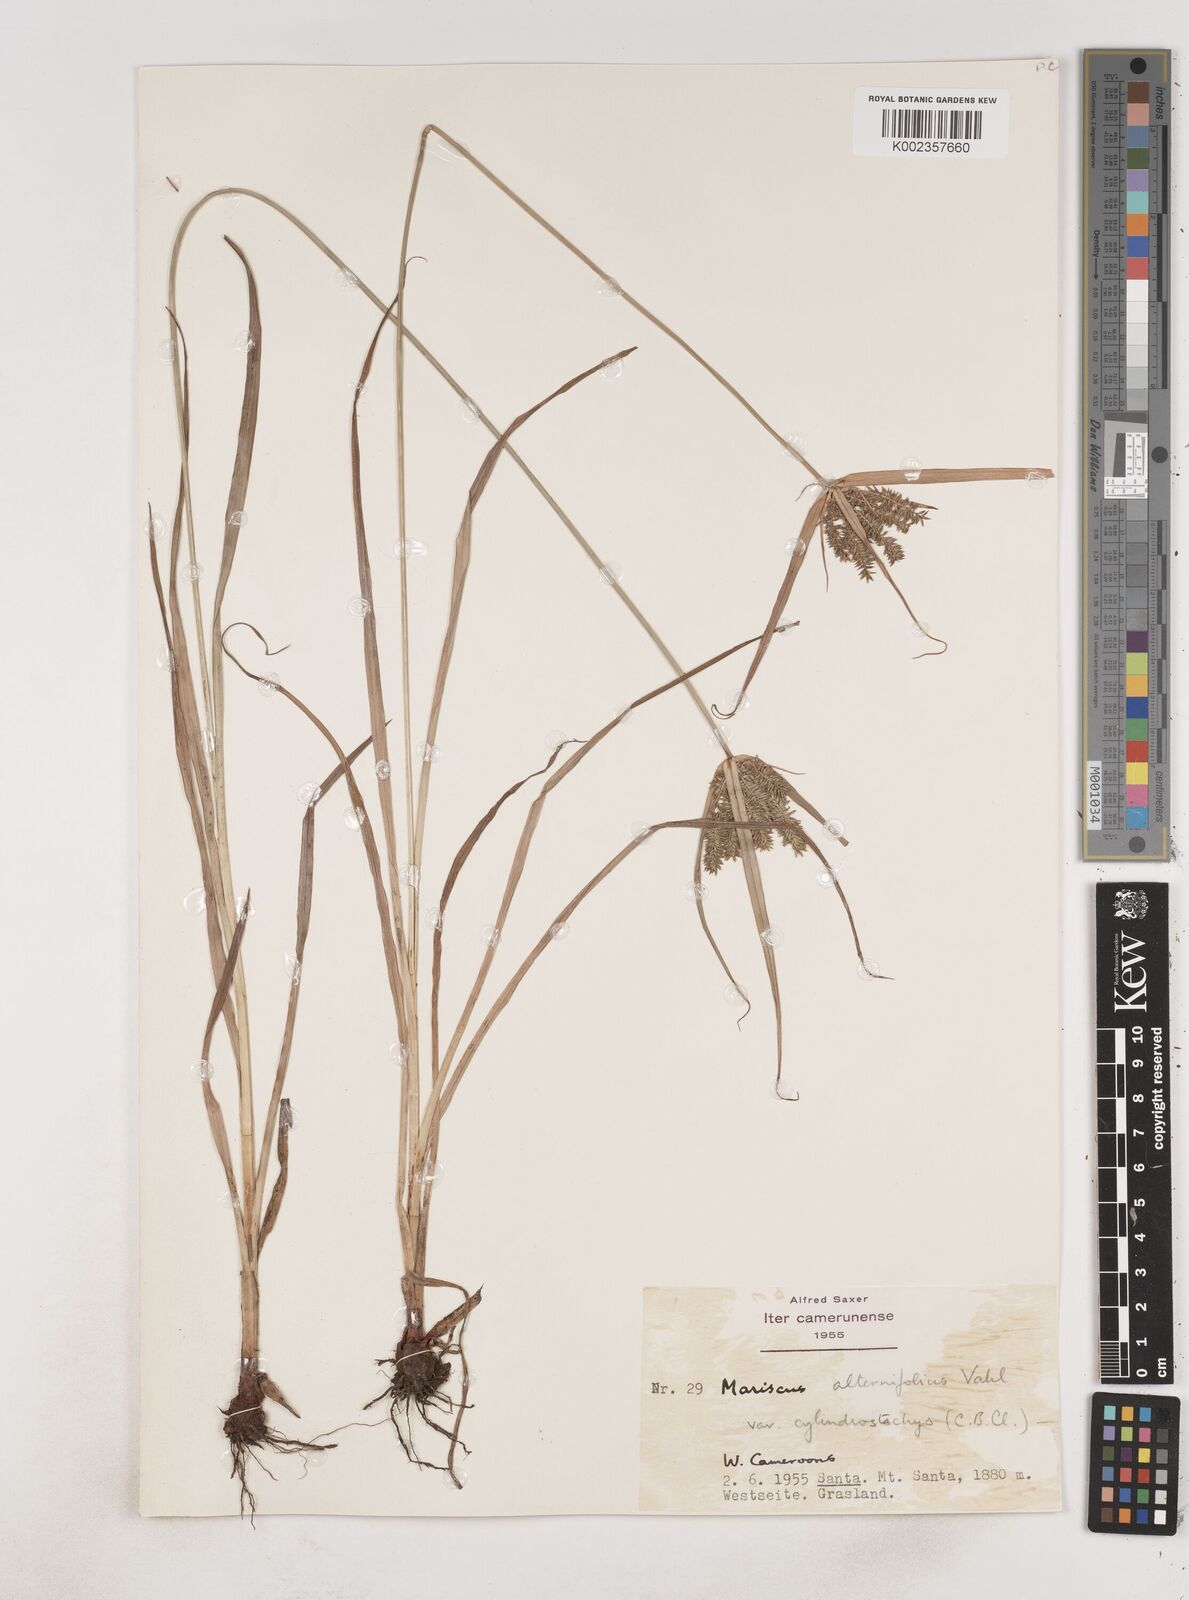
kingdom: Plantae
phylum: Tracheophyta
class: Liliopsida
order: Poales
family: Cyperaceae
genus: Cyperus
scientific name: Cyperus cyperoides
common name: Pacific island flat sedge
